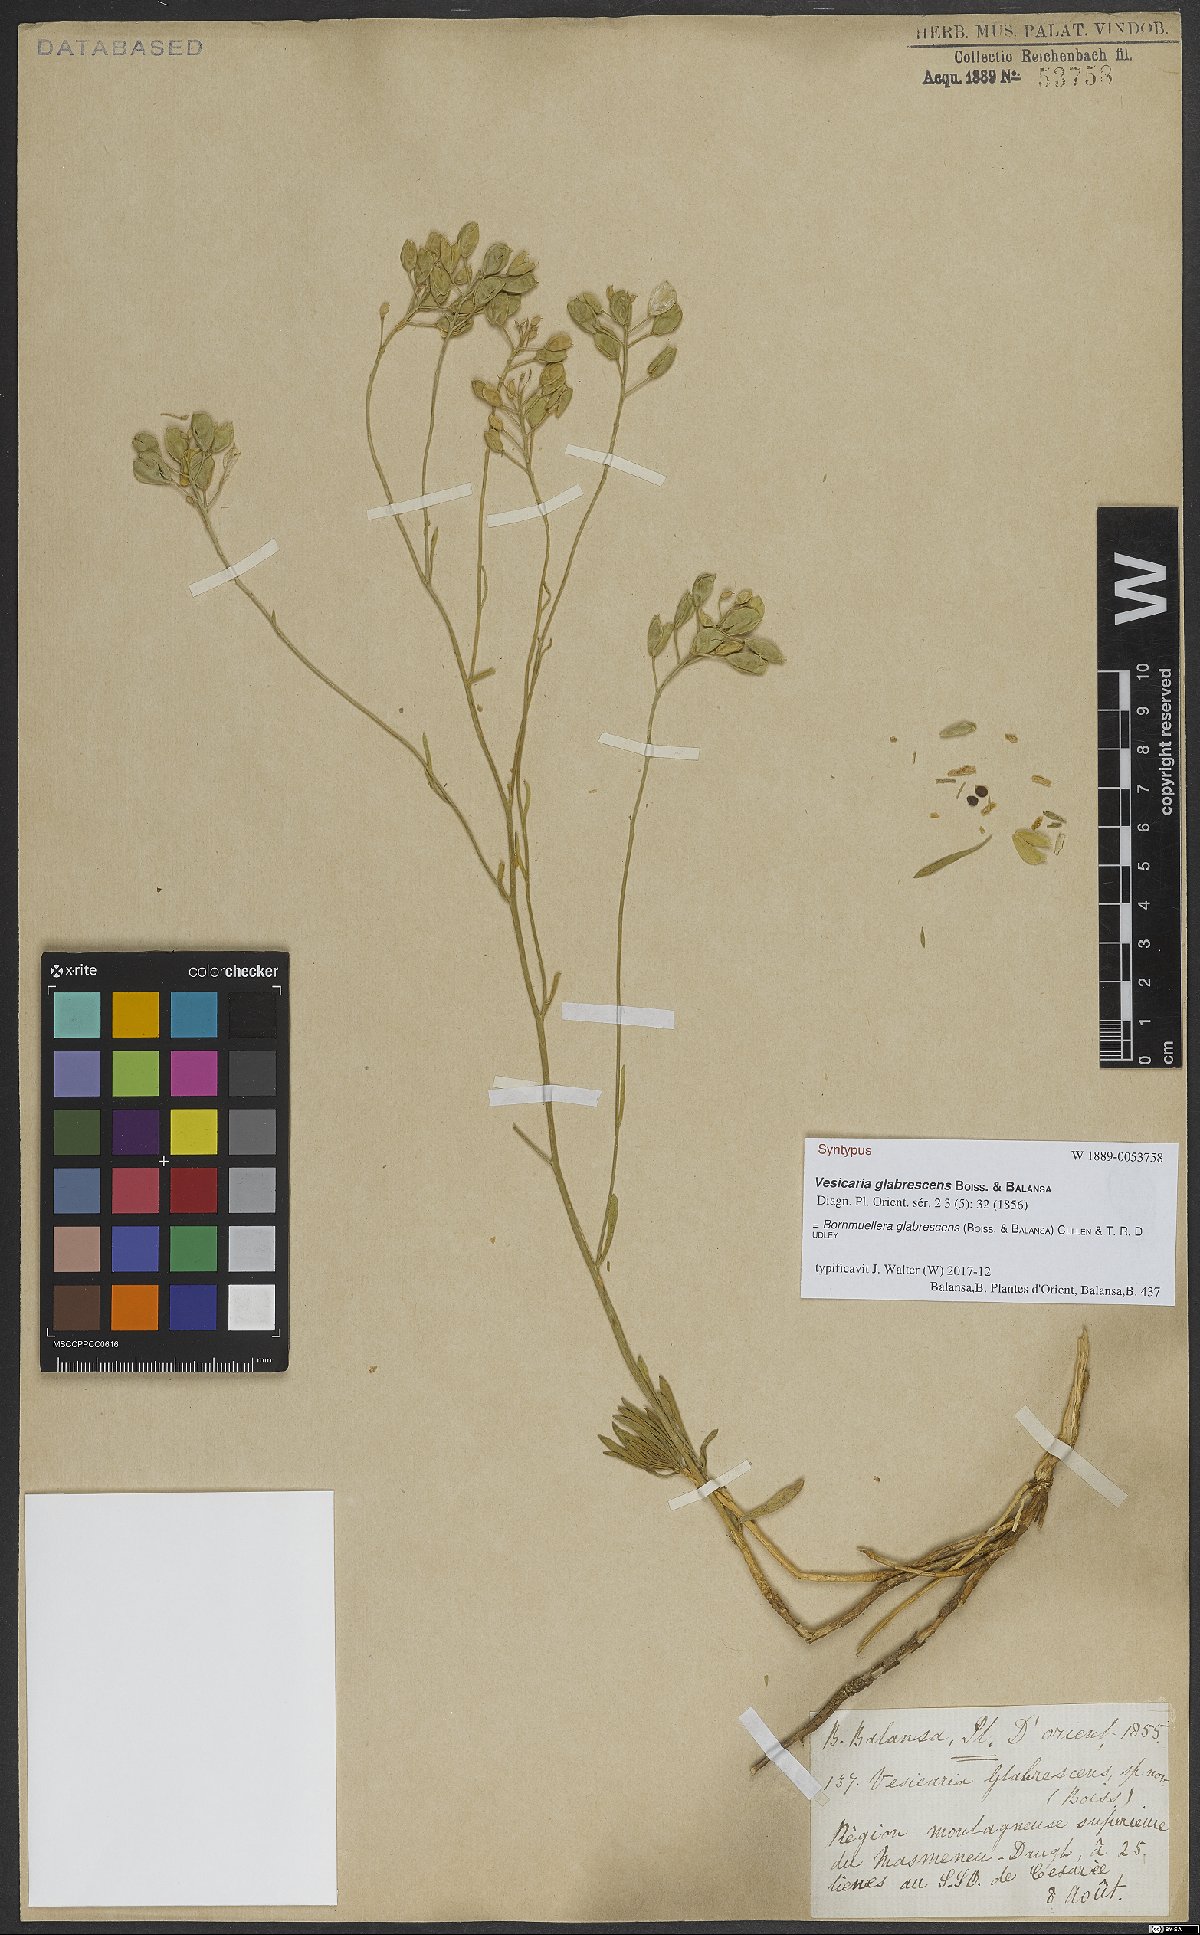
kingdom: Plantae
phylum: Tracheophyta
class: Magnoliopsida
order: Brassicales
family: Brassicaceae
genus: Bornmuellera
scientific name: Bornmuellera glabrescens
